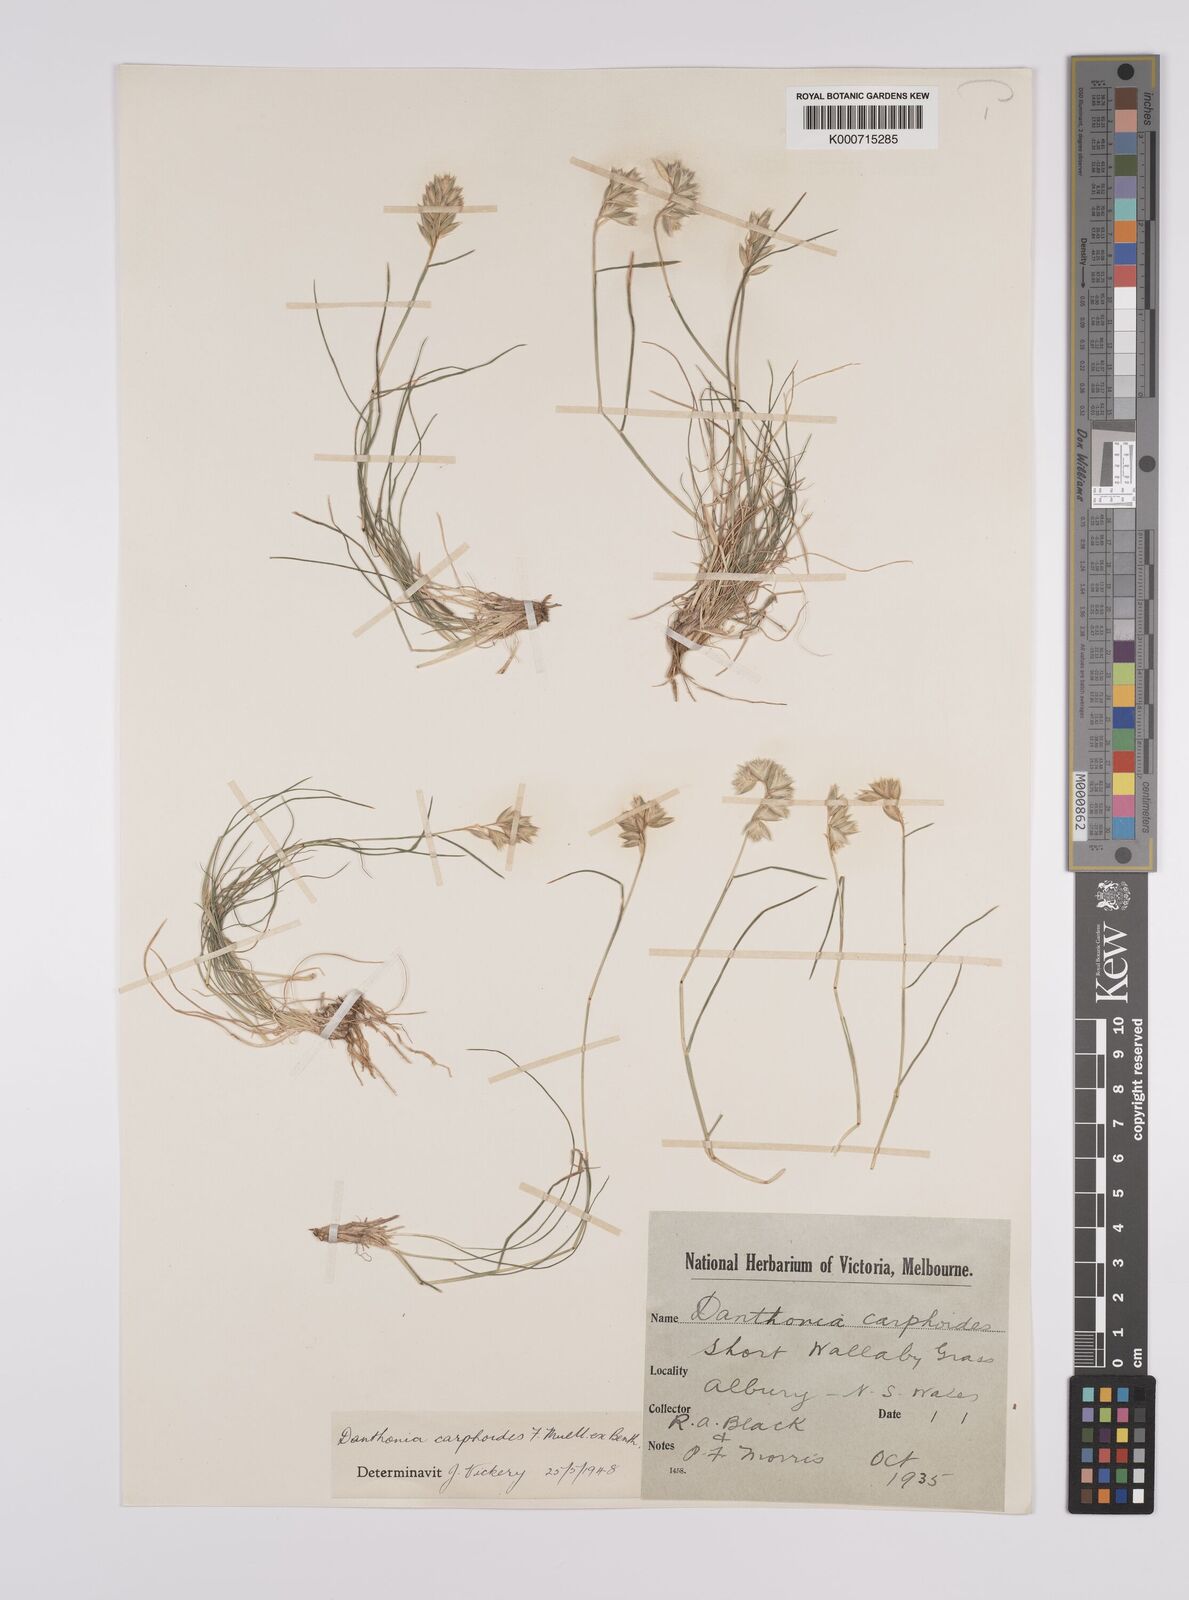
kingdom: Plantae
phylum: Tracheophyta
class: Liliopsida
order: Poales
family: Poaceae
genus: Rytidosperma
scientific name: Rytidosperma carphoides
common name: Short wallaby grass
